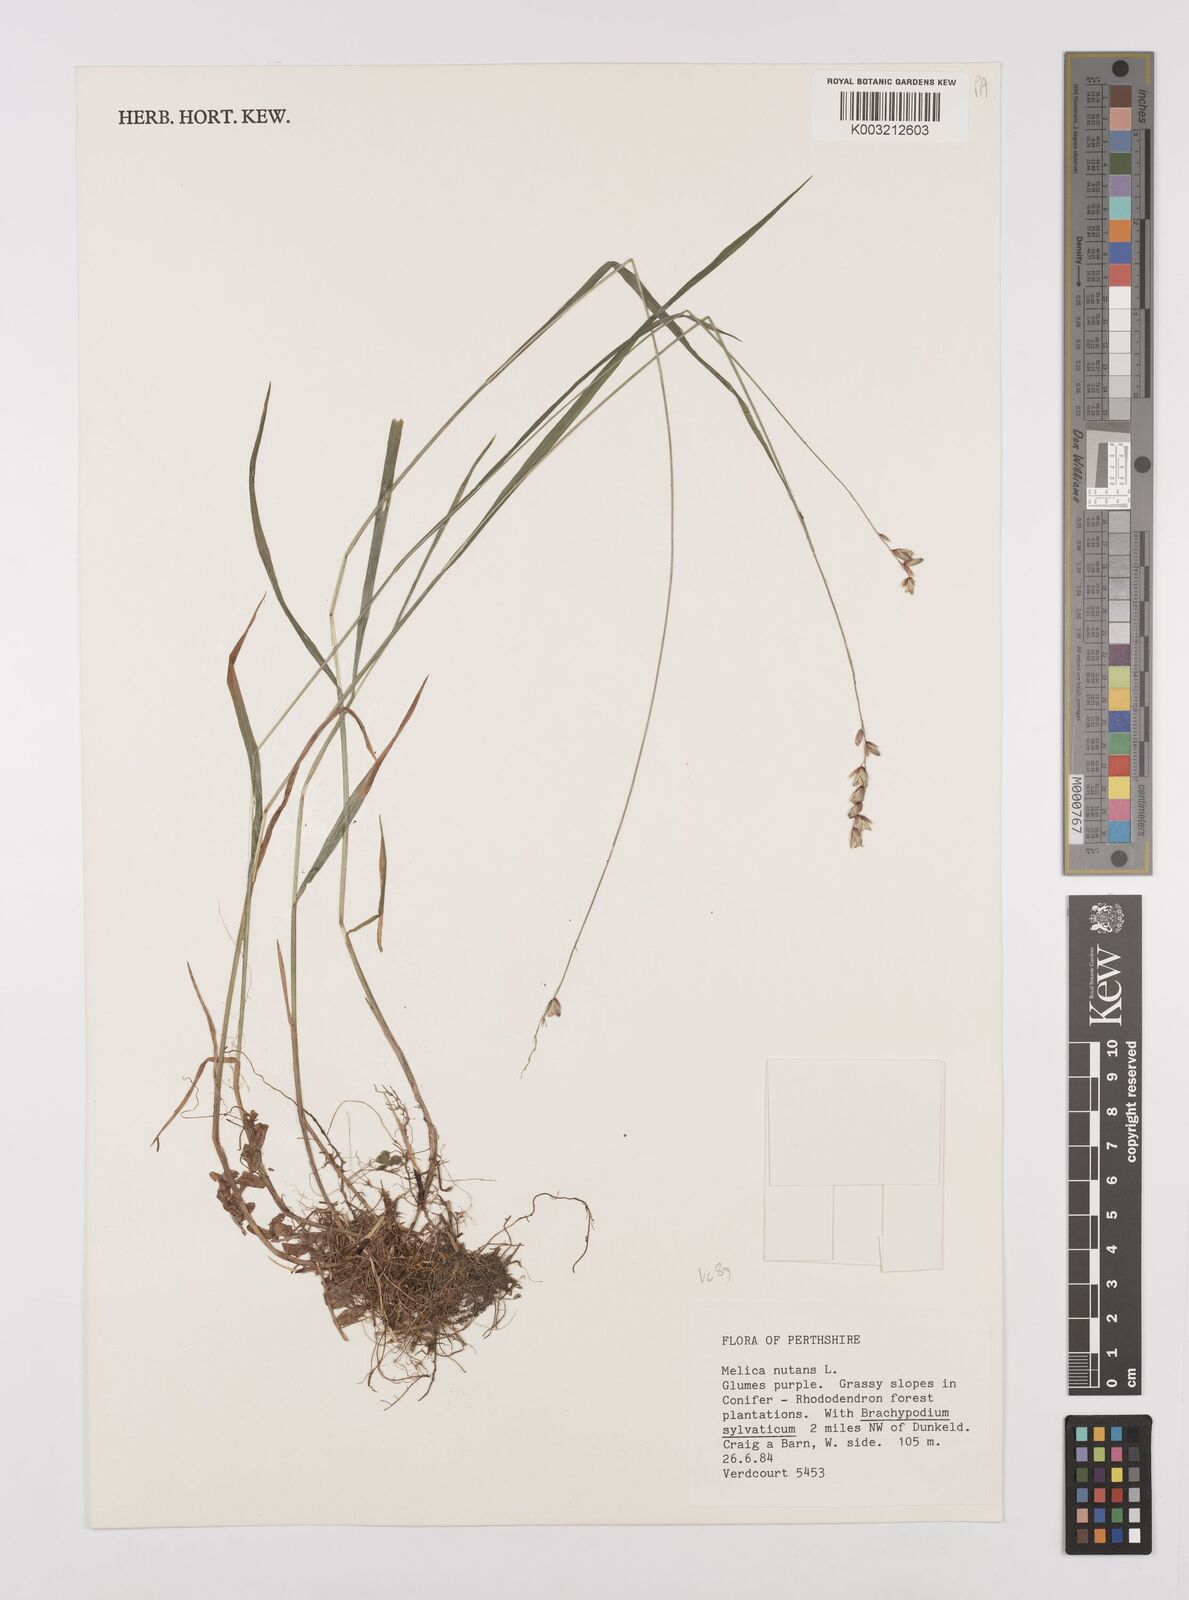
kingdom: Plantae
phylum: Tracheophyta
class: Liliopsida
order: Poales
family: Poaceae
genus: Melica
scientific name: Melica
